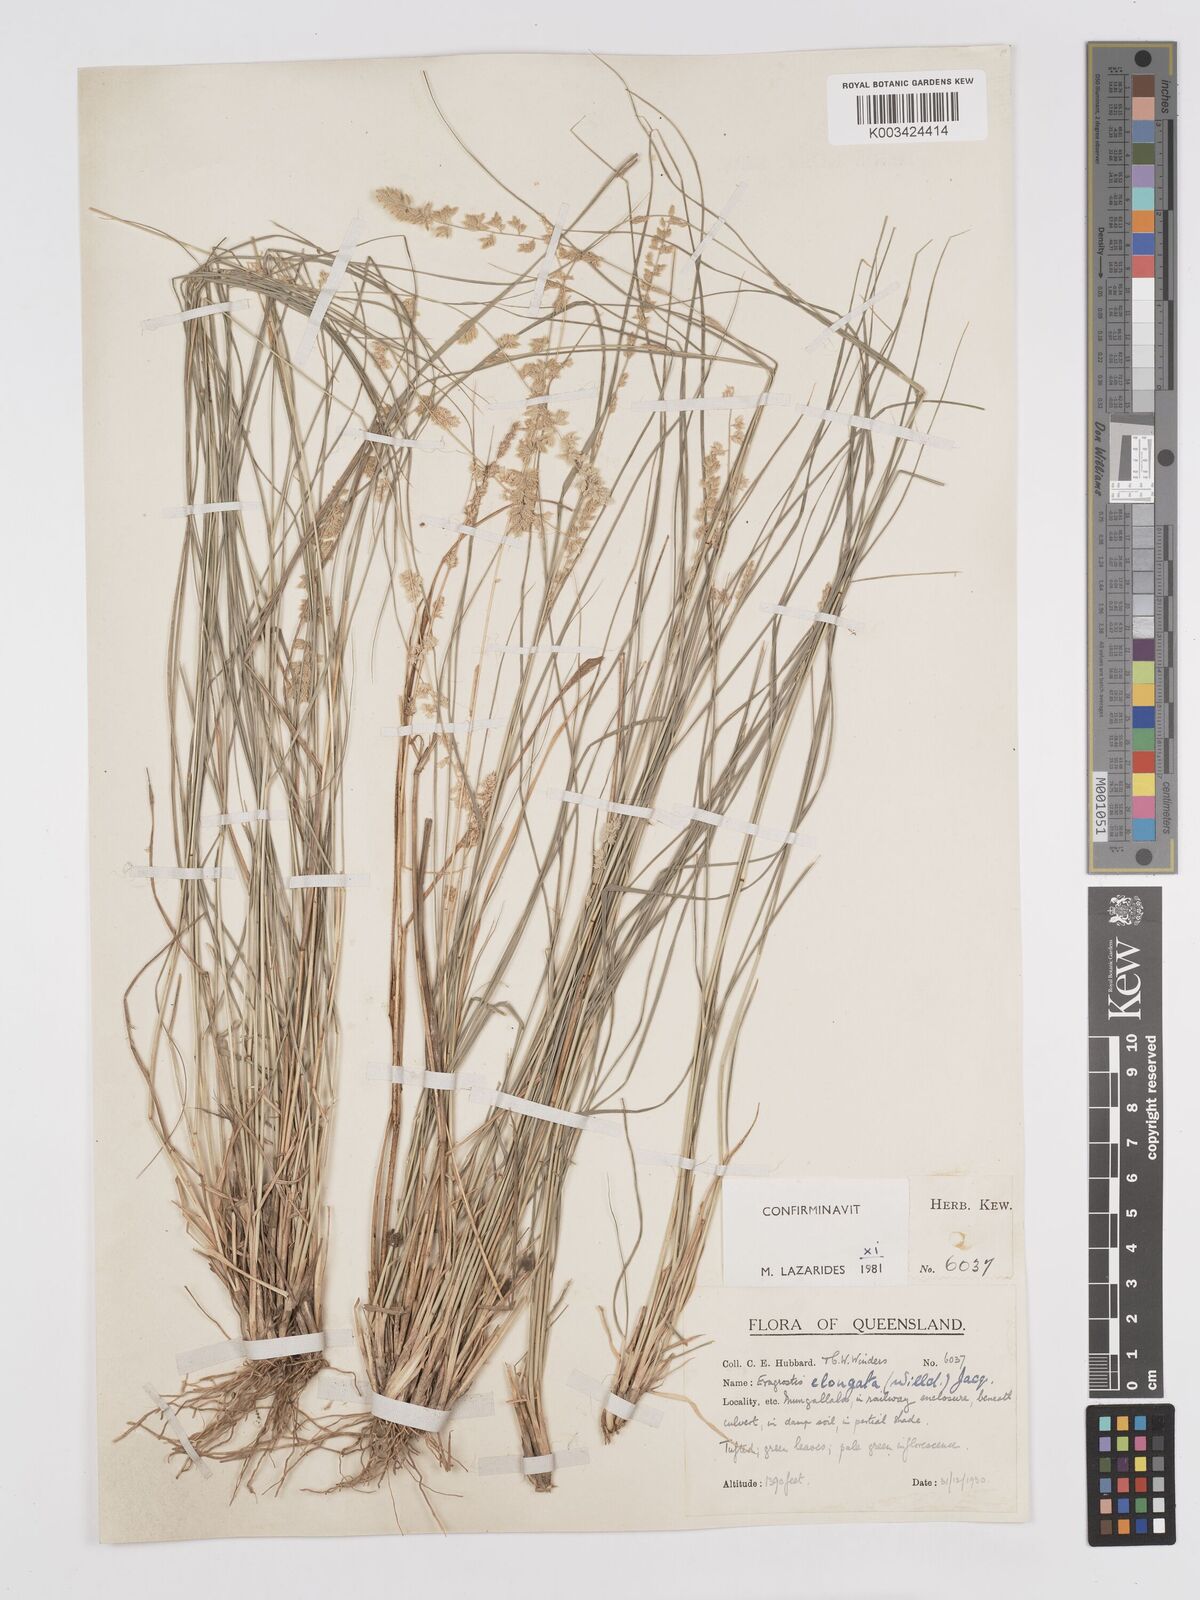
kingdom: Plantae
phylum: Tracheophyta
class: Liliopsida
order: Poales
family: Poaceae
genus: Eragrostis
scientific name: Eragrostis elongata
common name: Long lovegrass
